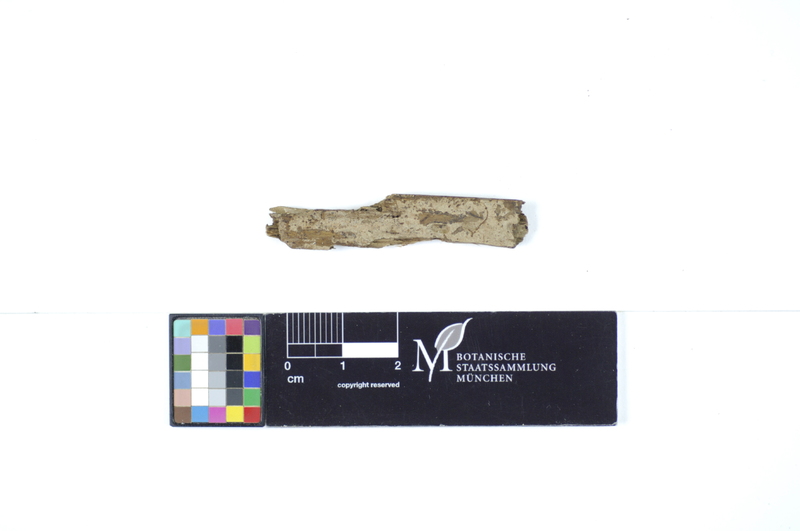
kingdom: Plantae
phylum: Tracheophyta
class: Pinopsida
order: Pinales
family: Pinaceae
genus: Pinus
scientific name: Pinus
